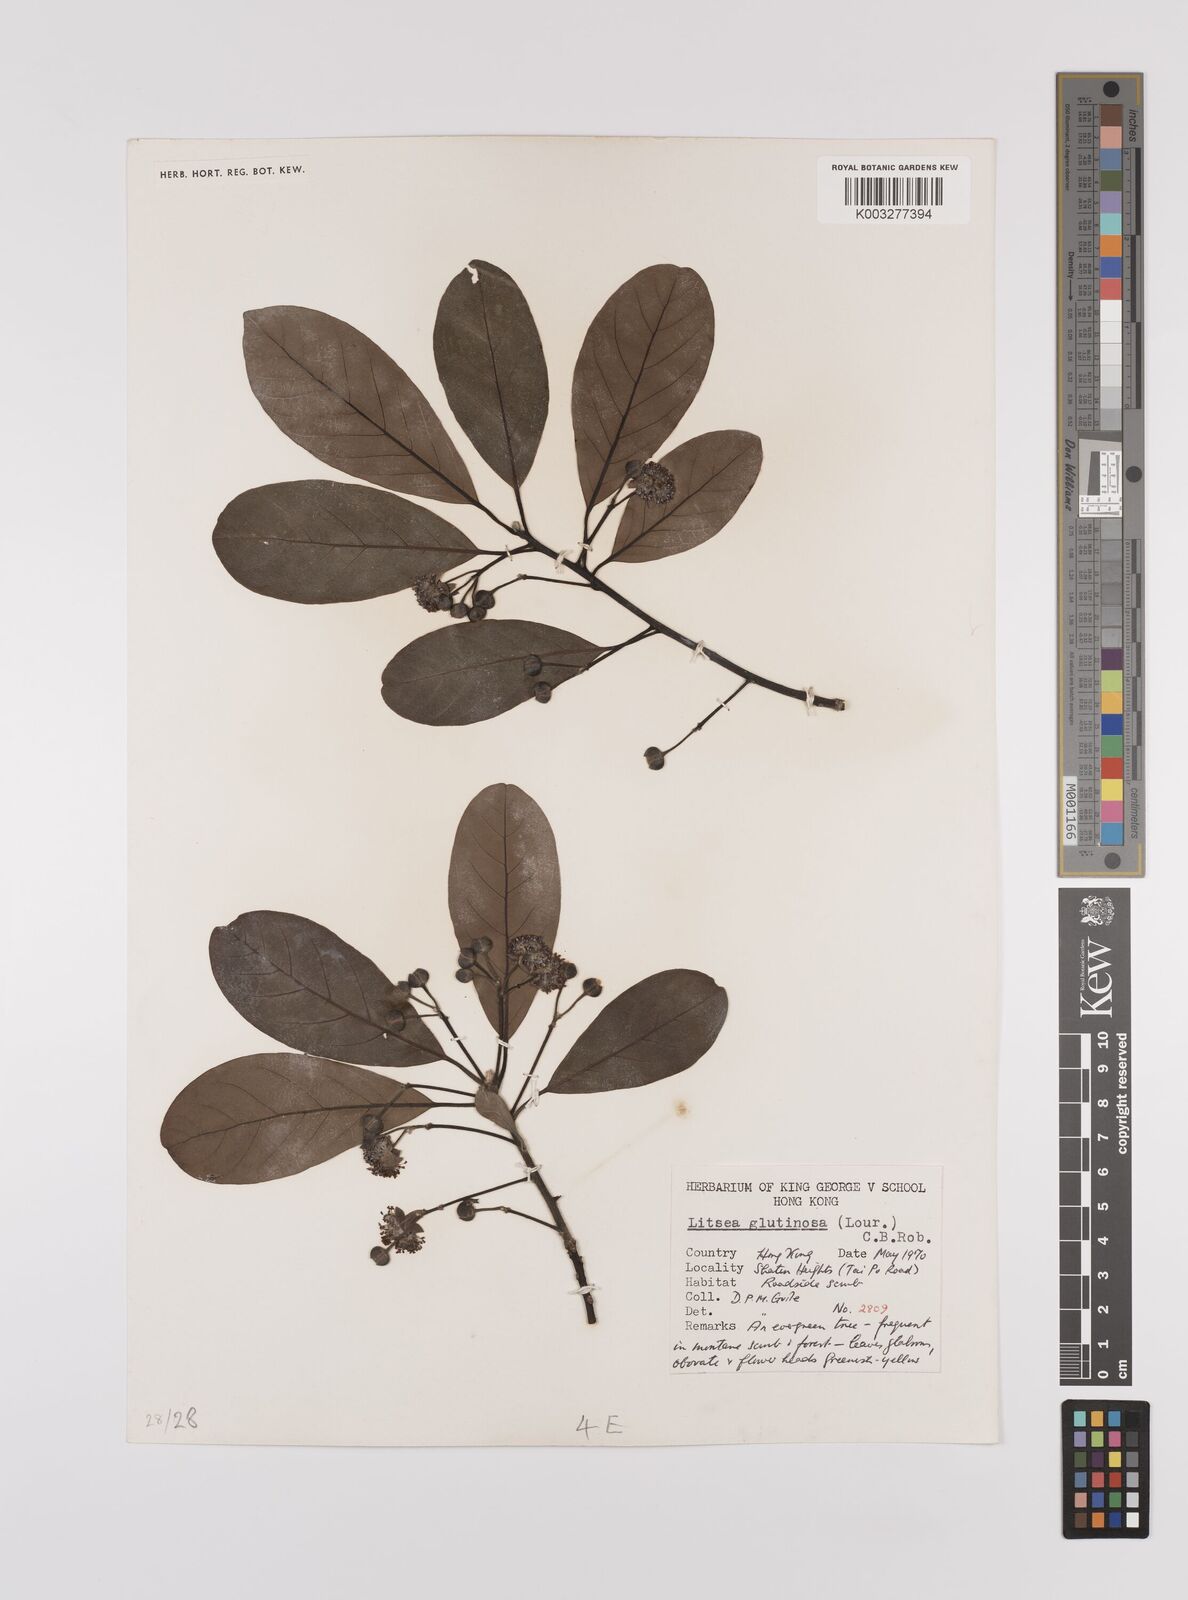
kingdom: Plantae
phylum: Tracheophyta
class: Magnoliopsida
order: Laurales
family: Lauraceae
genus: Litsea
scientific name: Litsea glutinosa
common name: Indian-laurel
